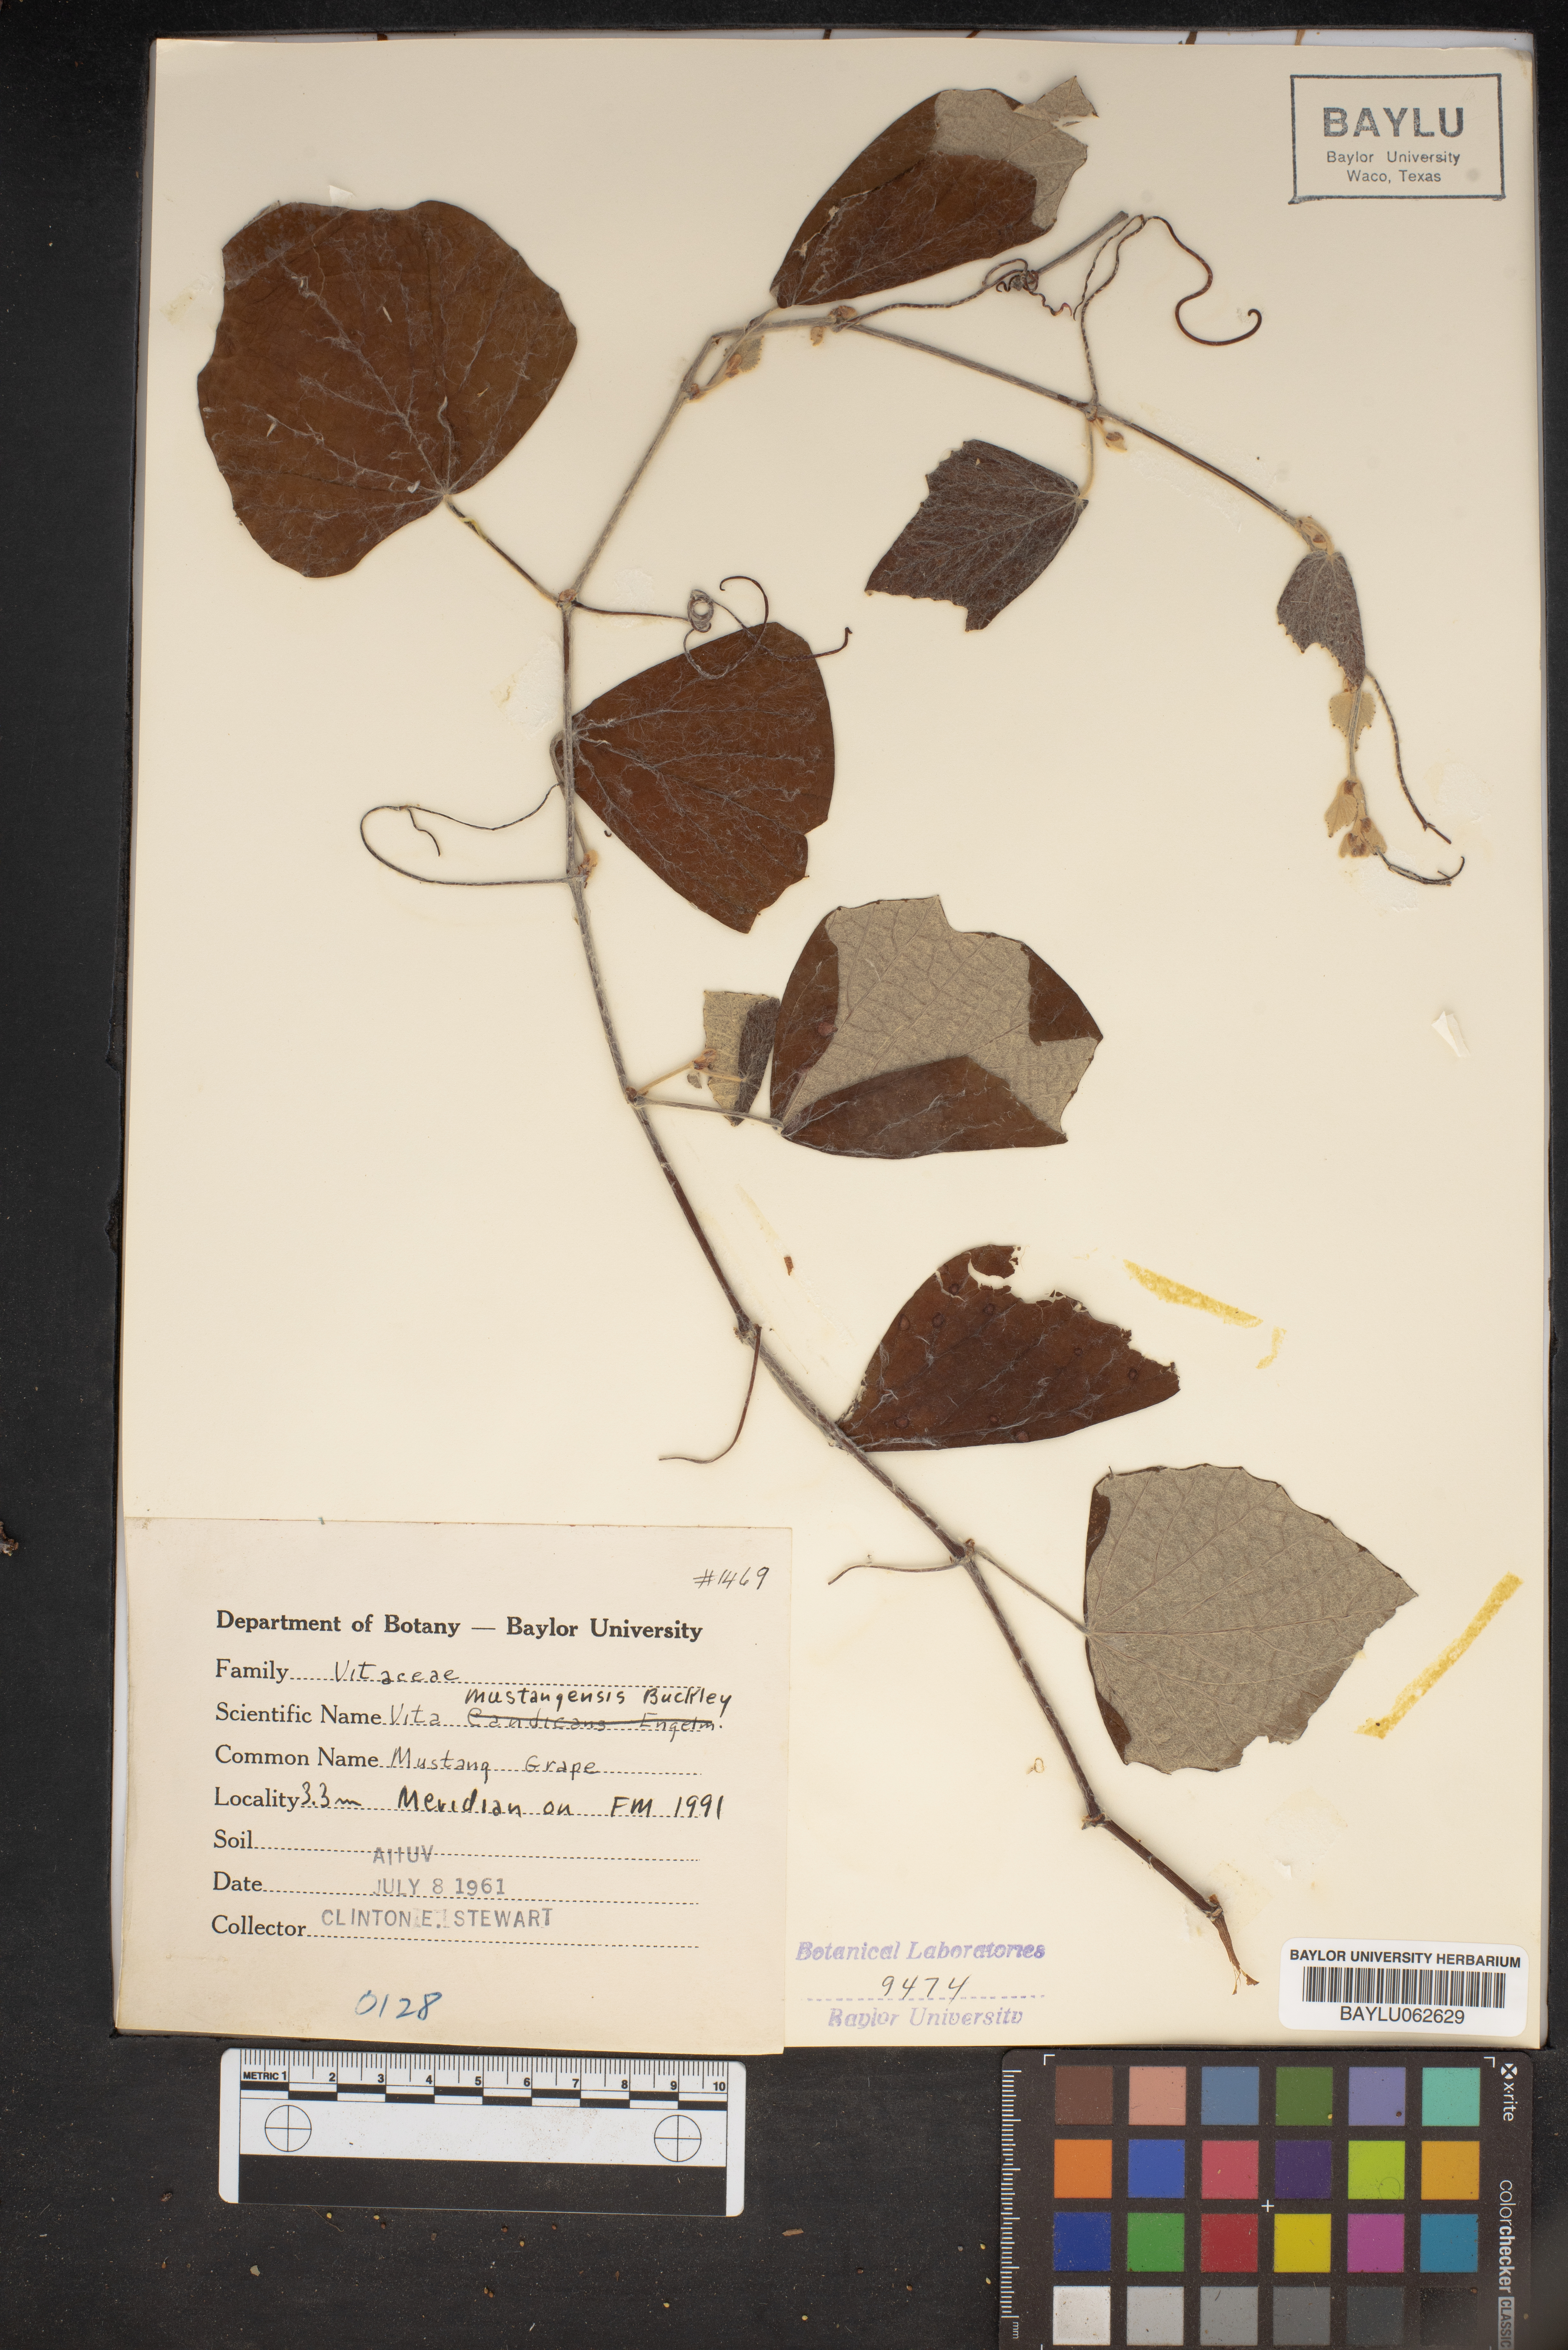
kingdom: Plantae
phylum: Tracheophyta
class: Magnoliopsida
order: Vitales
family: Vitaceae
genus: Vitis
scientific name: Vitis mustangensis
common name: Mustang grape
